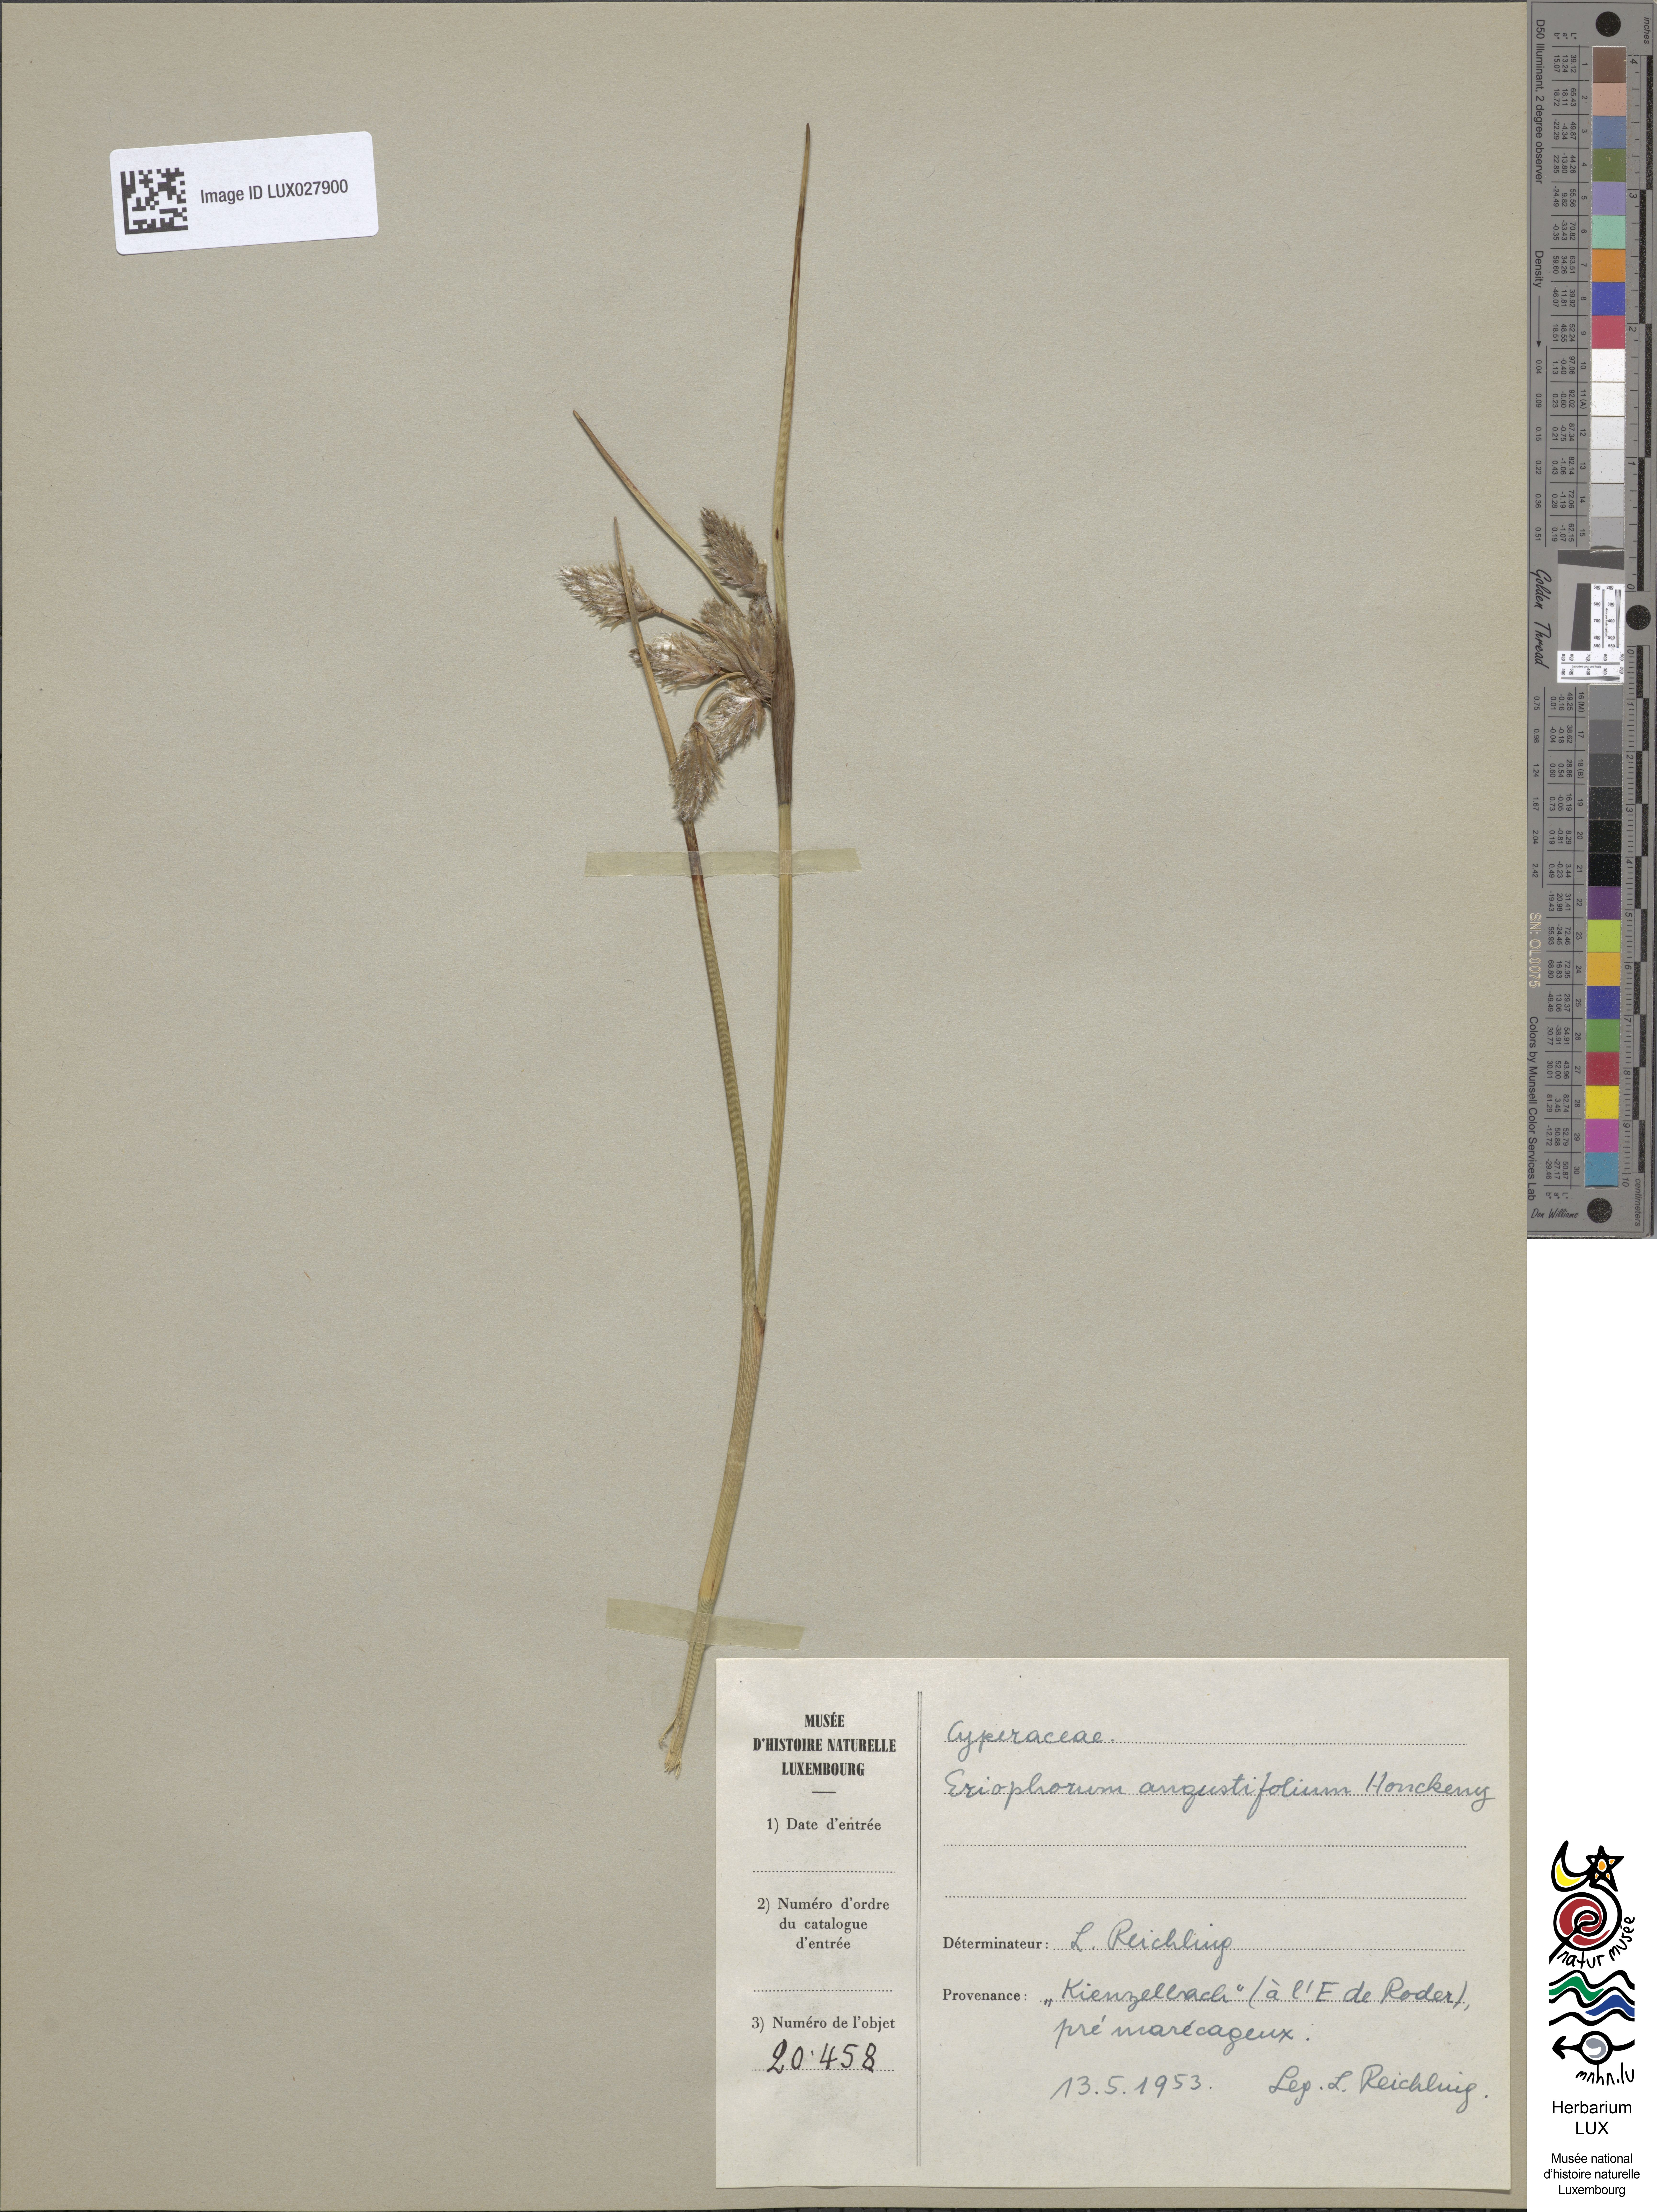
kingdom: Plantae
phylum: Tracheophyta
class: Liliopsida
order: Poales
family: Cyperaceae
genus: Eriophorum
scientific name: Eriophorum angustifolium
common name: Common cottongrass
